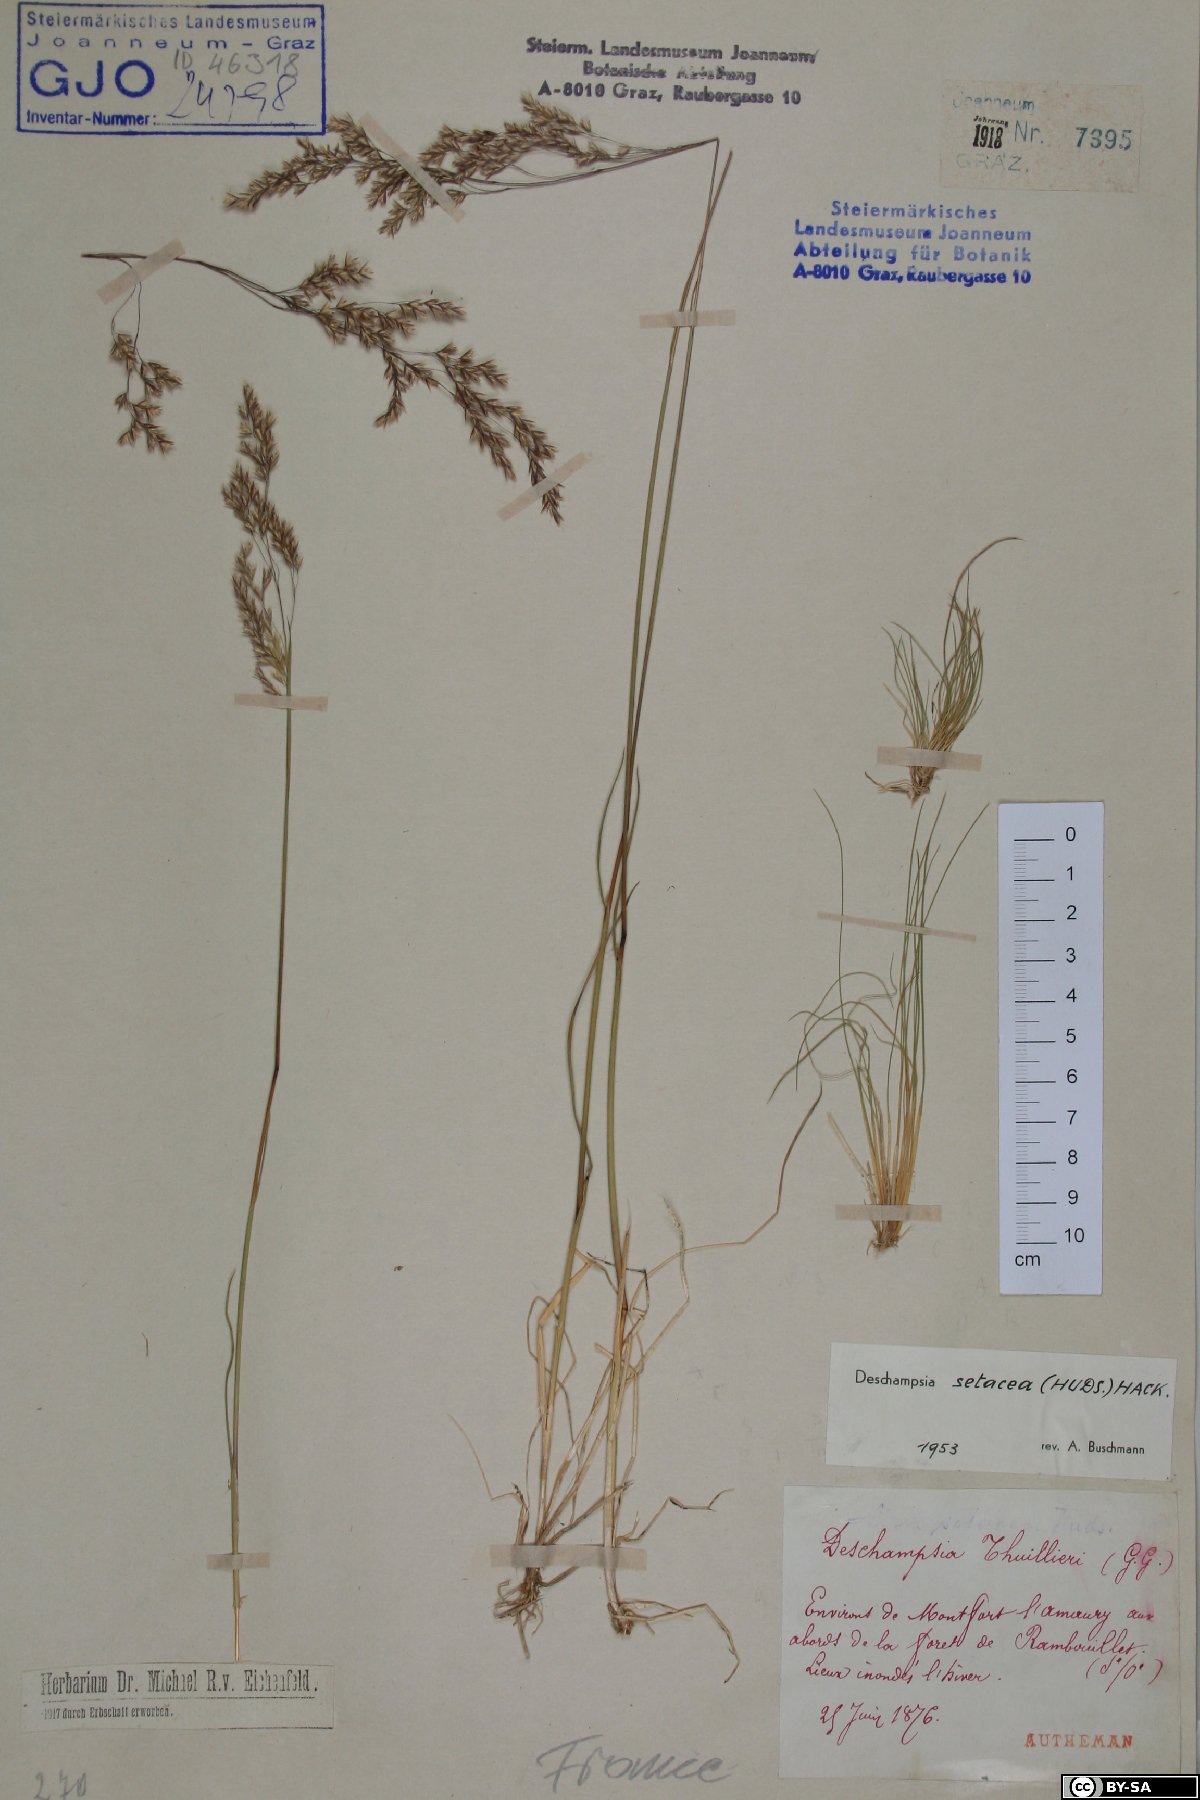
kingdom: Plantae
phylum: Tracheophyta
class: Liliopsida
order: Poales
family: Poaceae
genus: Deschampsia
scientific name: Deschampsia setacea
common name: Bog hair-grass
